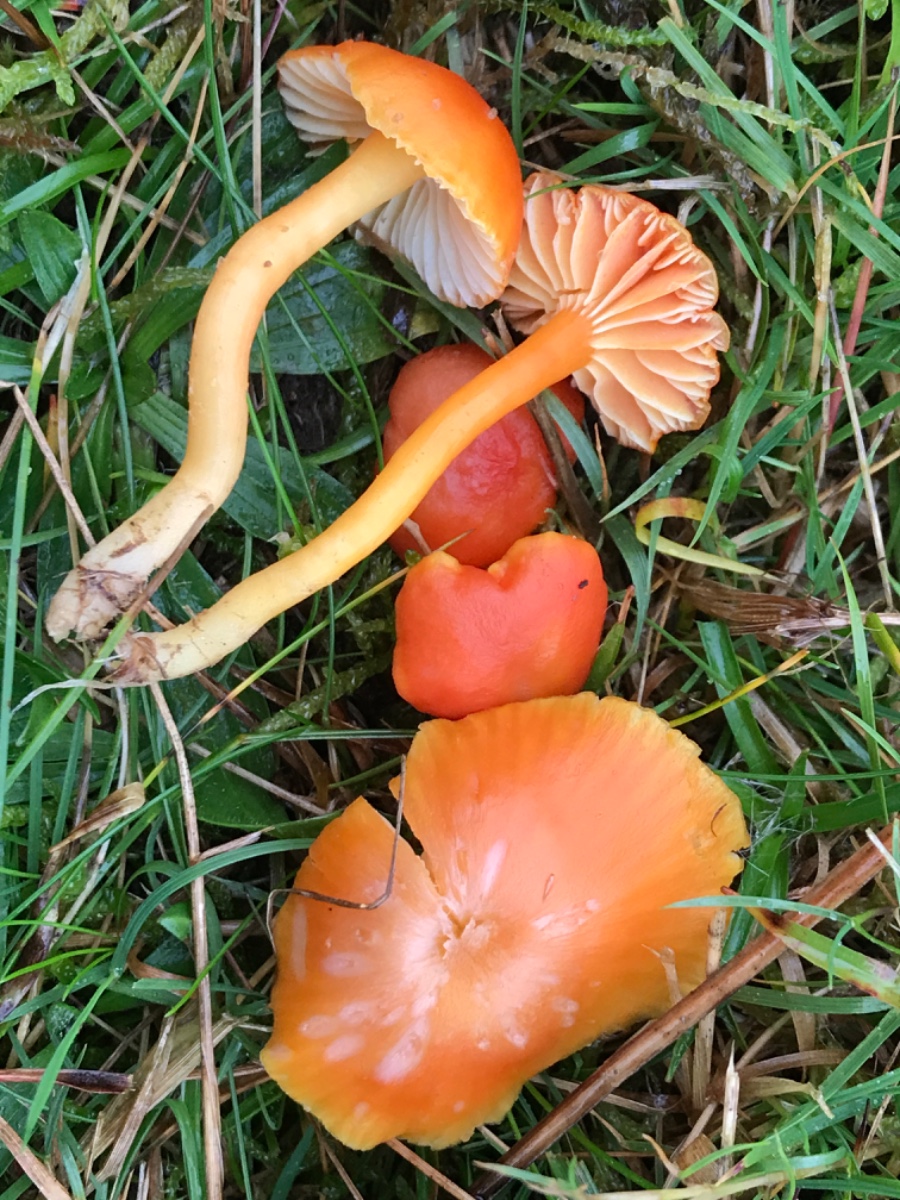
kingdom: Fungi
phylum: Basidiomycota
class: Agaricomycetes
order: Agaricales
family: Hygrophoraceae
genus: Hygrocybe
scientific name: Hygrocybe reidii
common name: honning-vokshat
